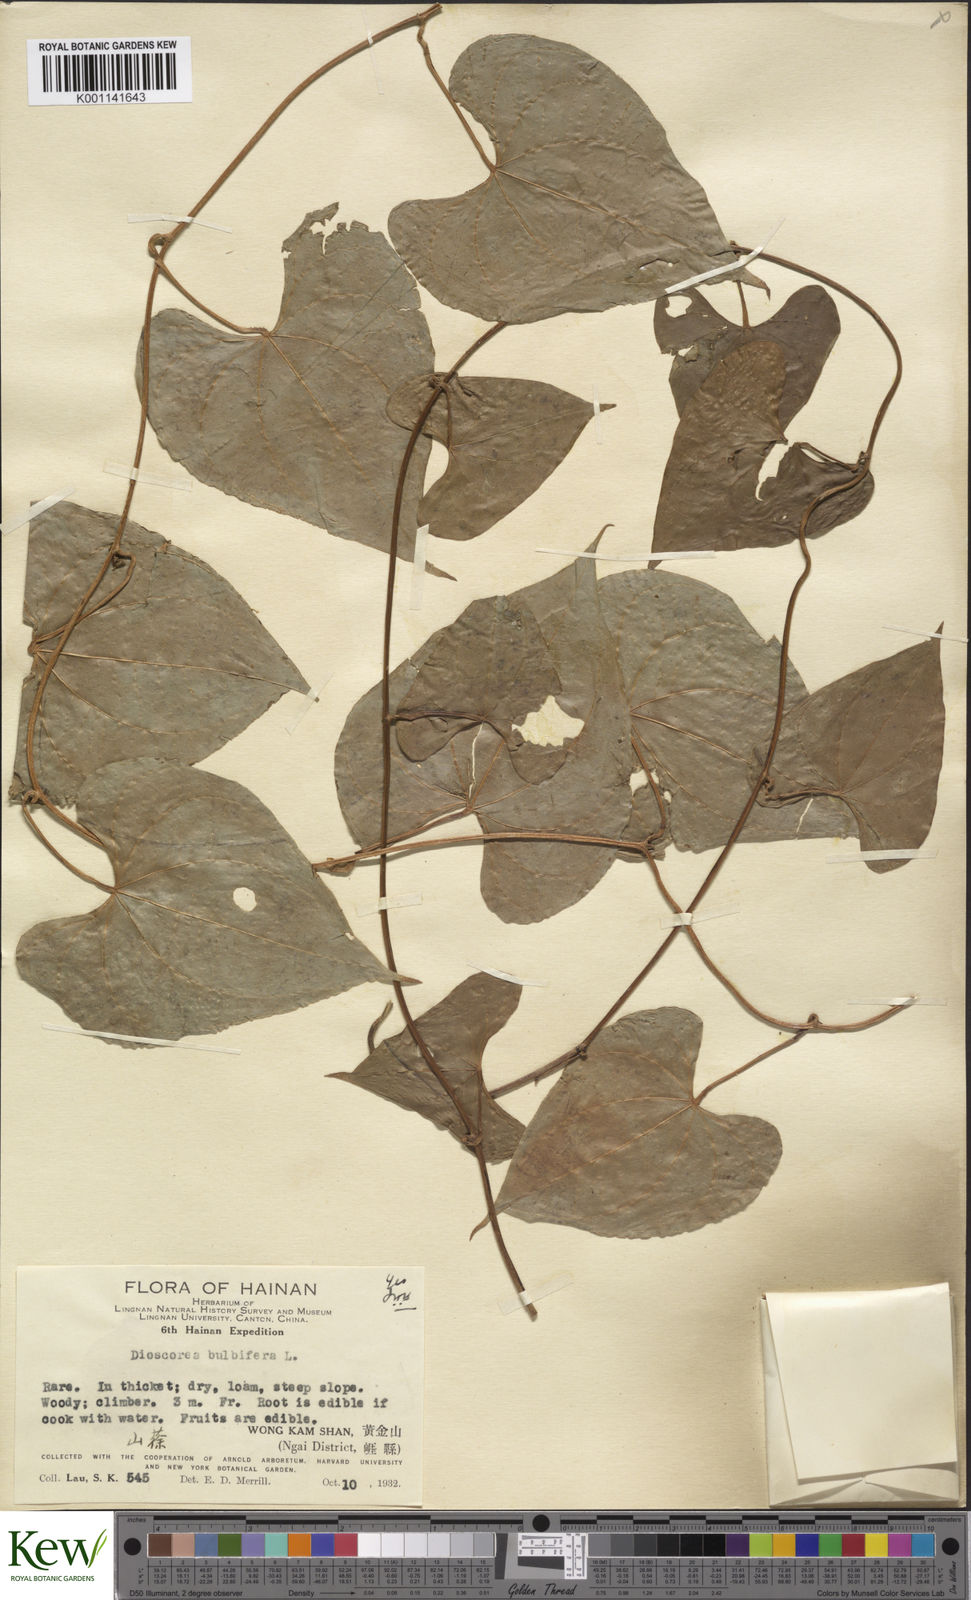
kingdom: Plantae
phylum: Tracheophyta
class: Liliopsida
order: Dioscoreales
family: Dioscoreaceae
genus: Dioscorea
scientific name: Dioscorea bulbifera
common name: Air yam
